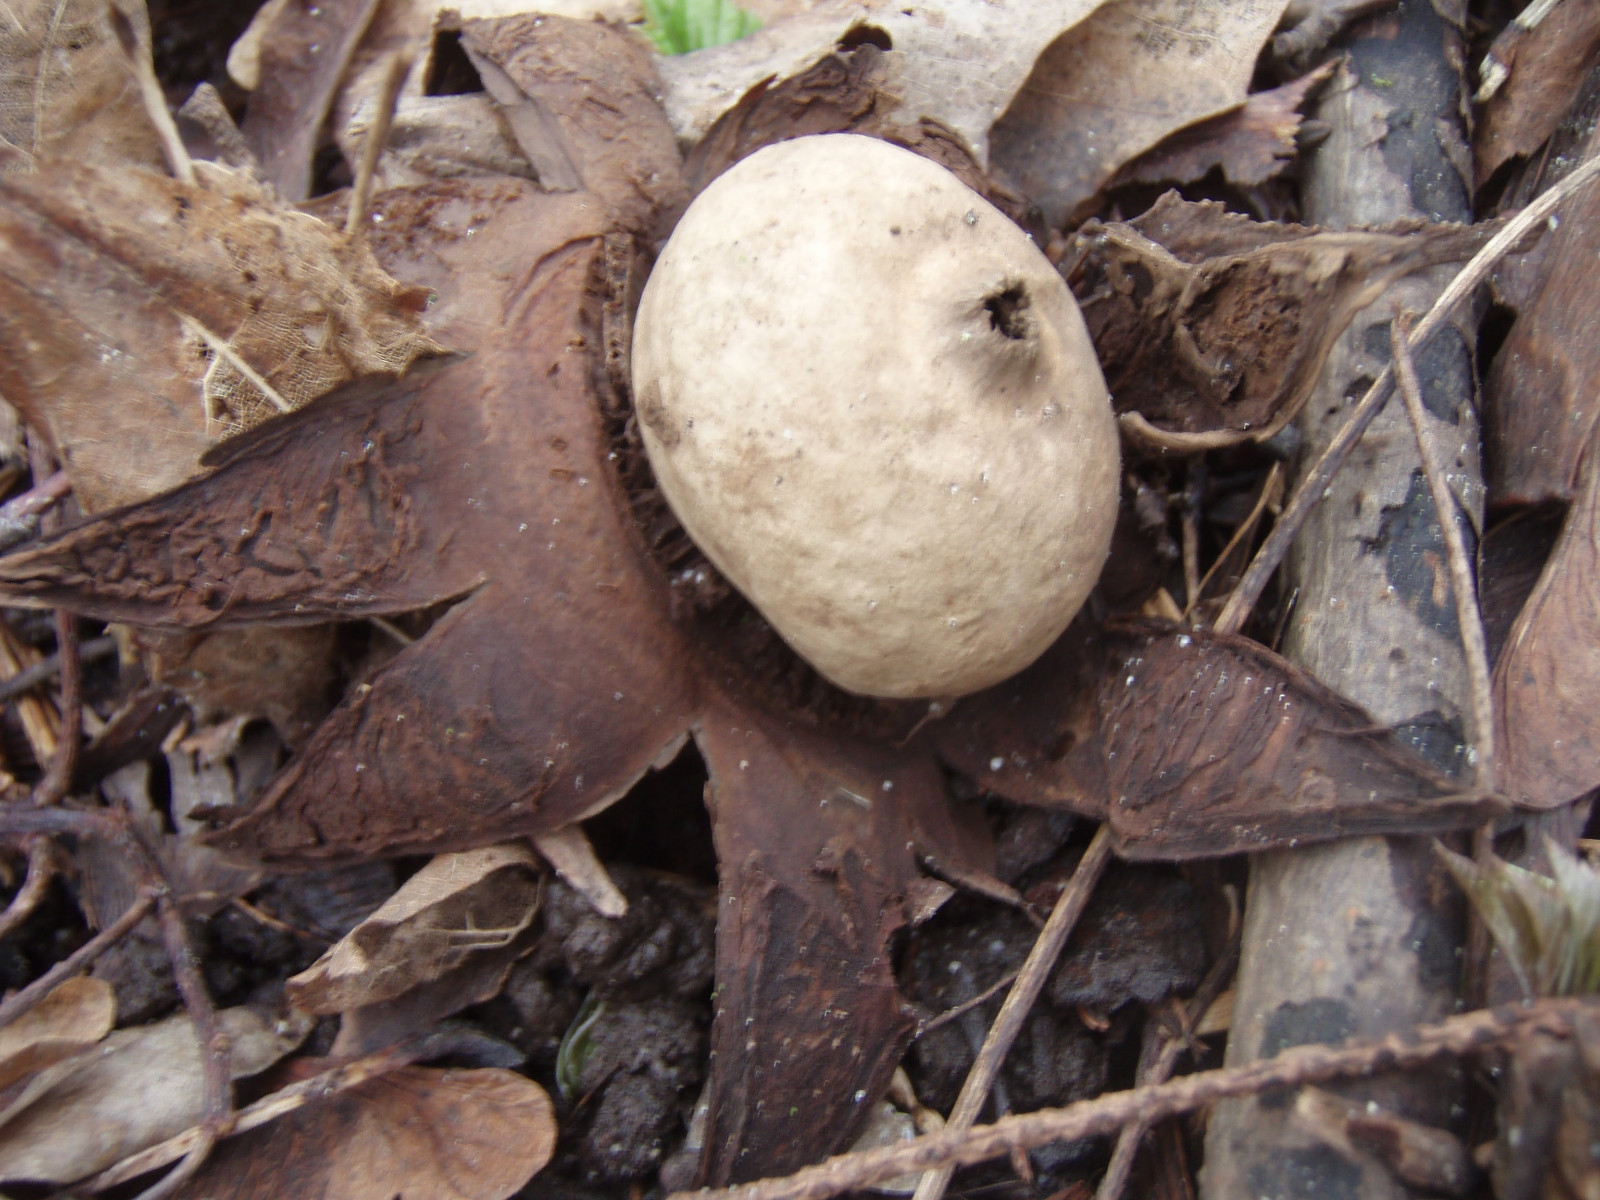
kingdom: Fungi
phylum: Basidiomycota
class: Agaricomycetes
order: Geastrales
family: Geastraceae
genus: Geastrum
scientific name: Geastrum michelianum
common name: kødet stjernebold
